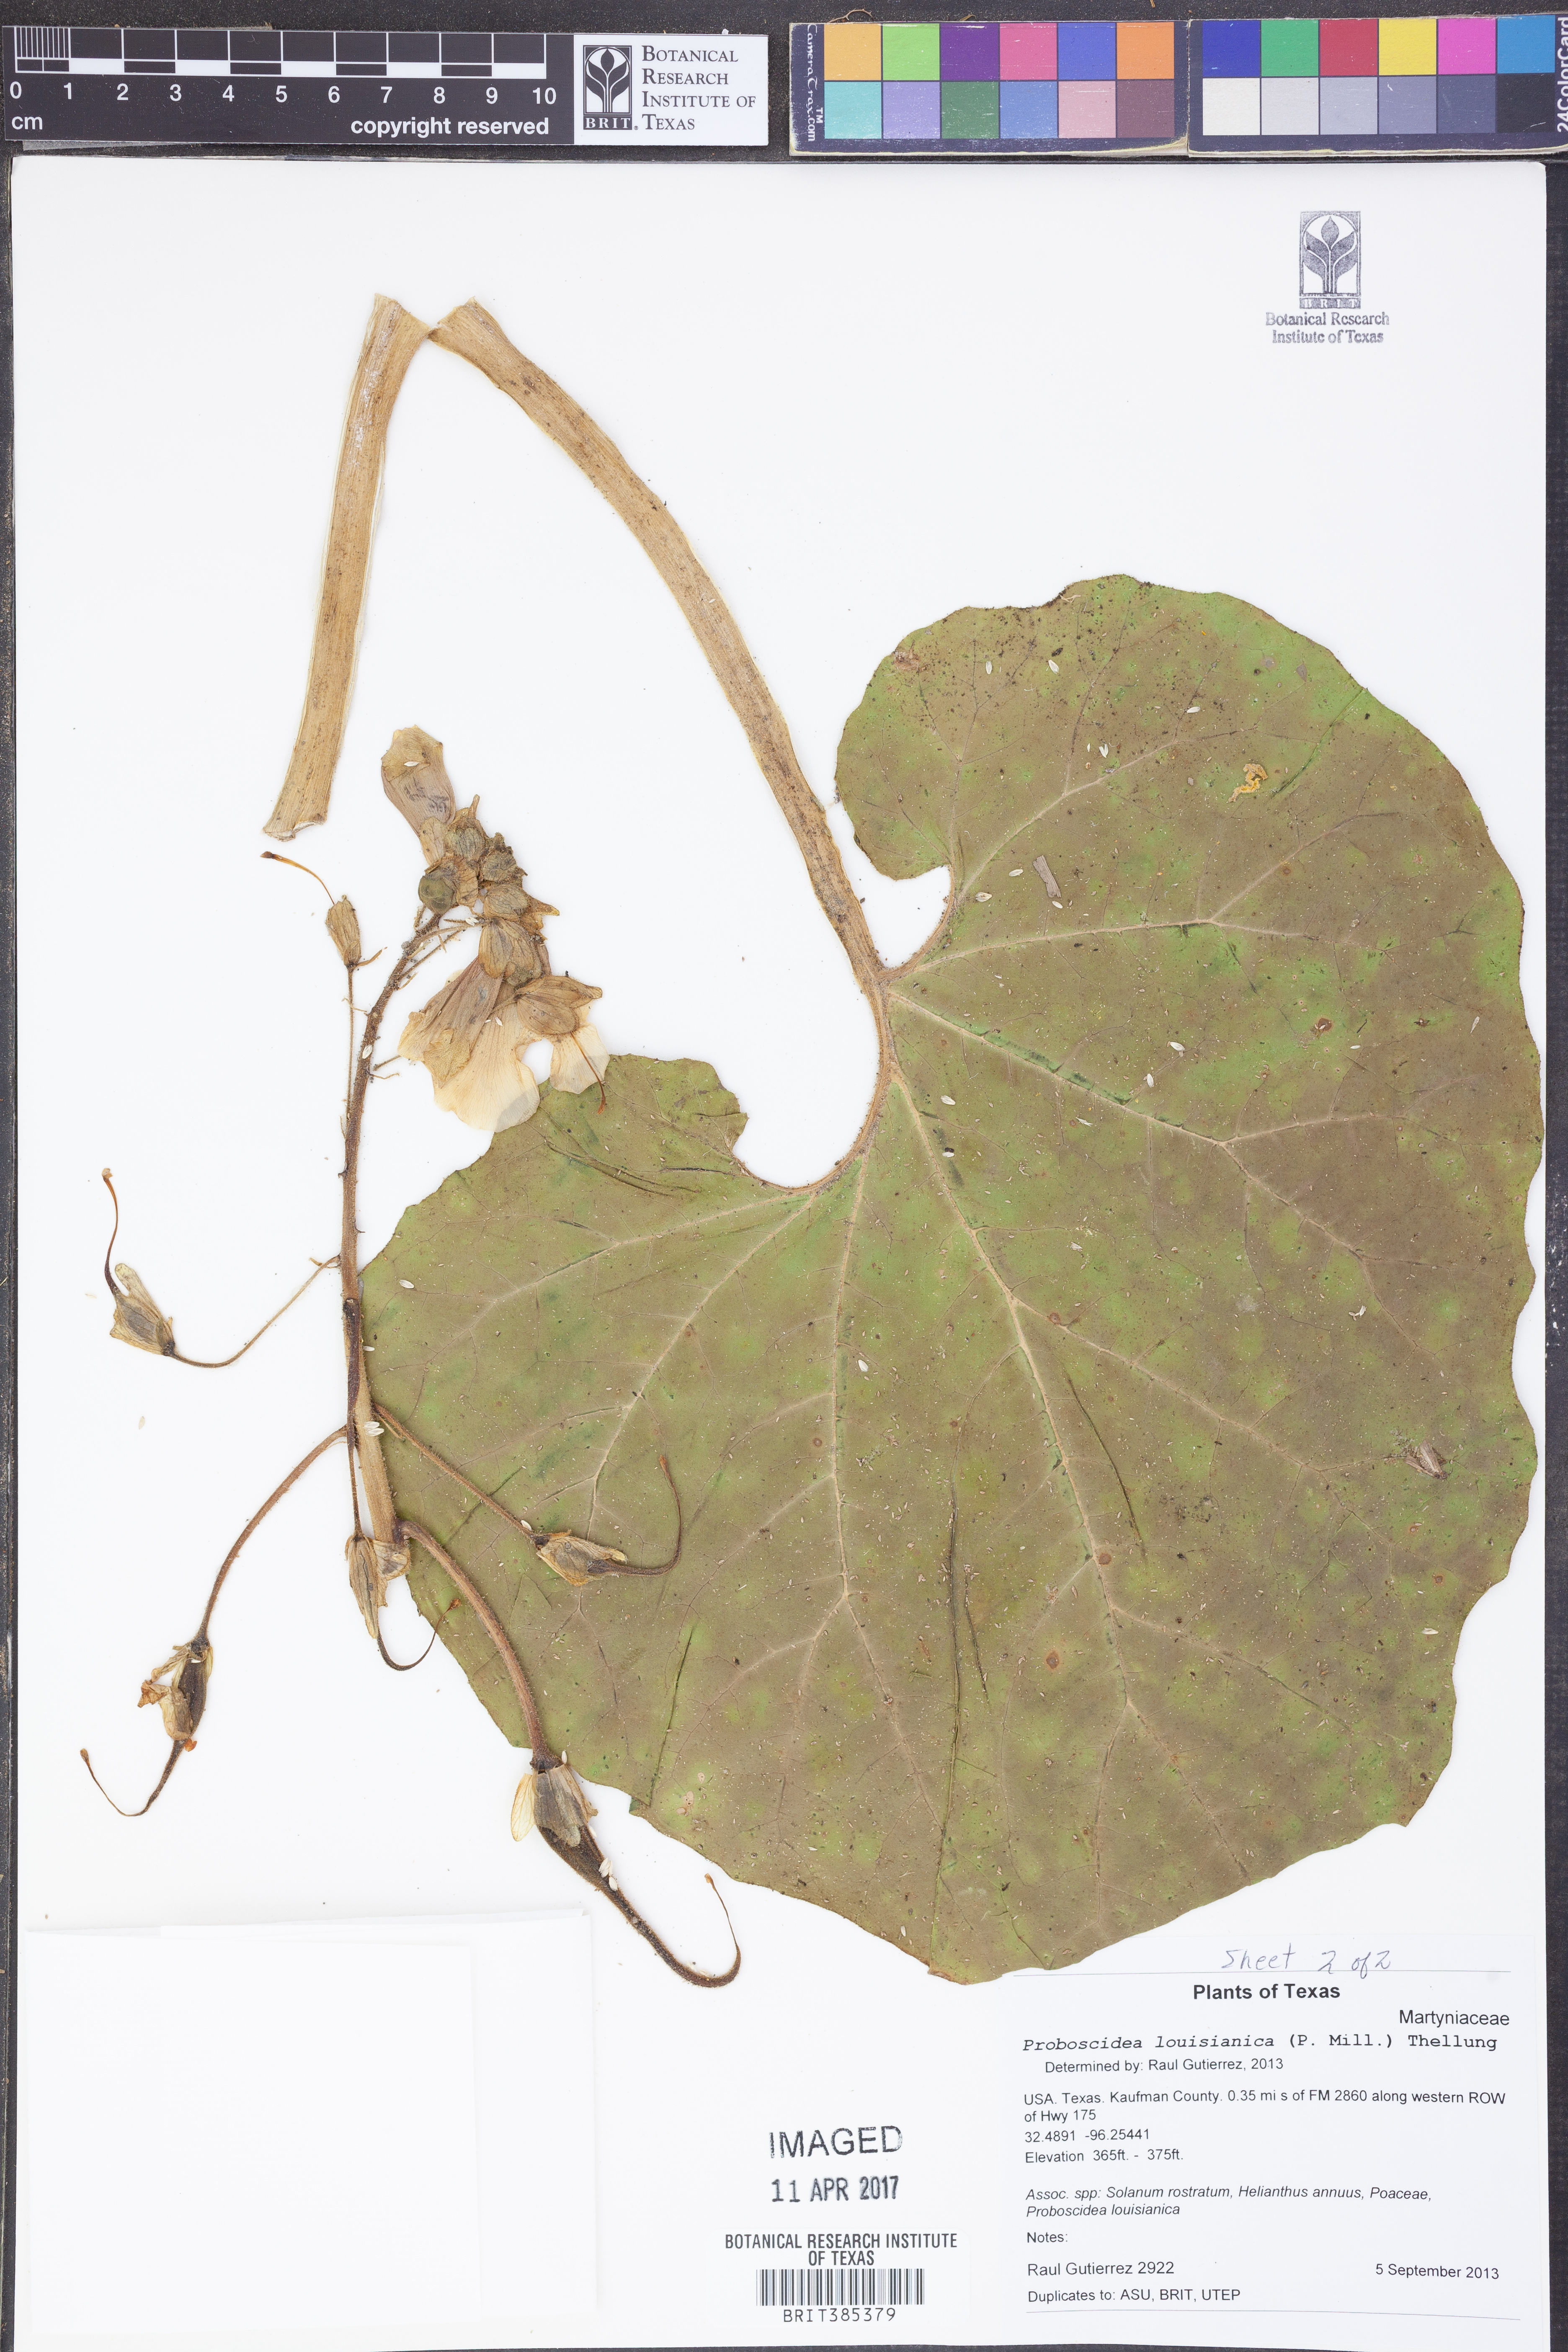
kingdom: Plantae
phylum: Tracheophyta
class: Magnoliopsida
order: Lamiales
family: Martyniaceae
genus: Proboscidea
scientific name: Proboscidea louisianica
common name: Elephant tusks
